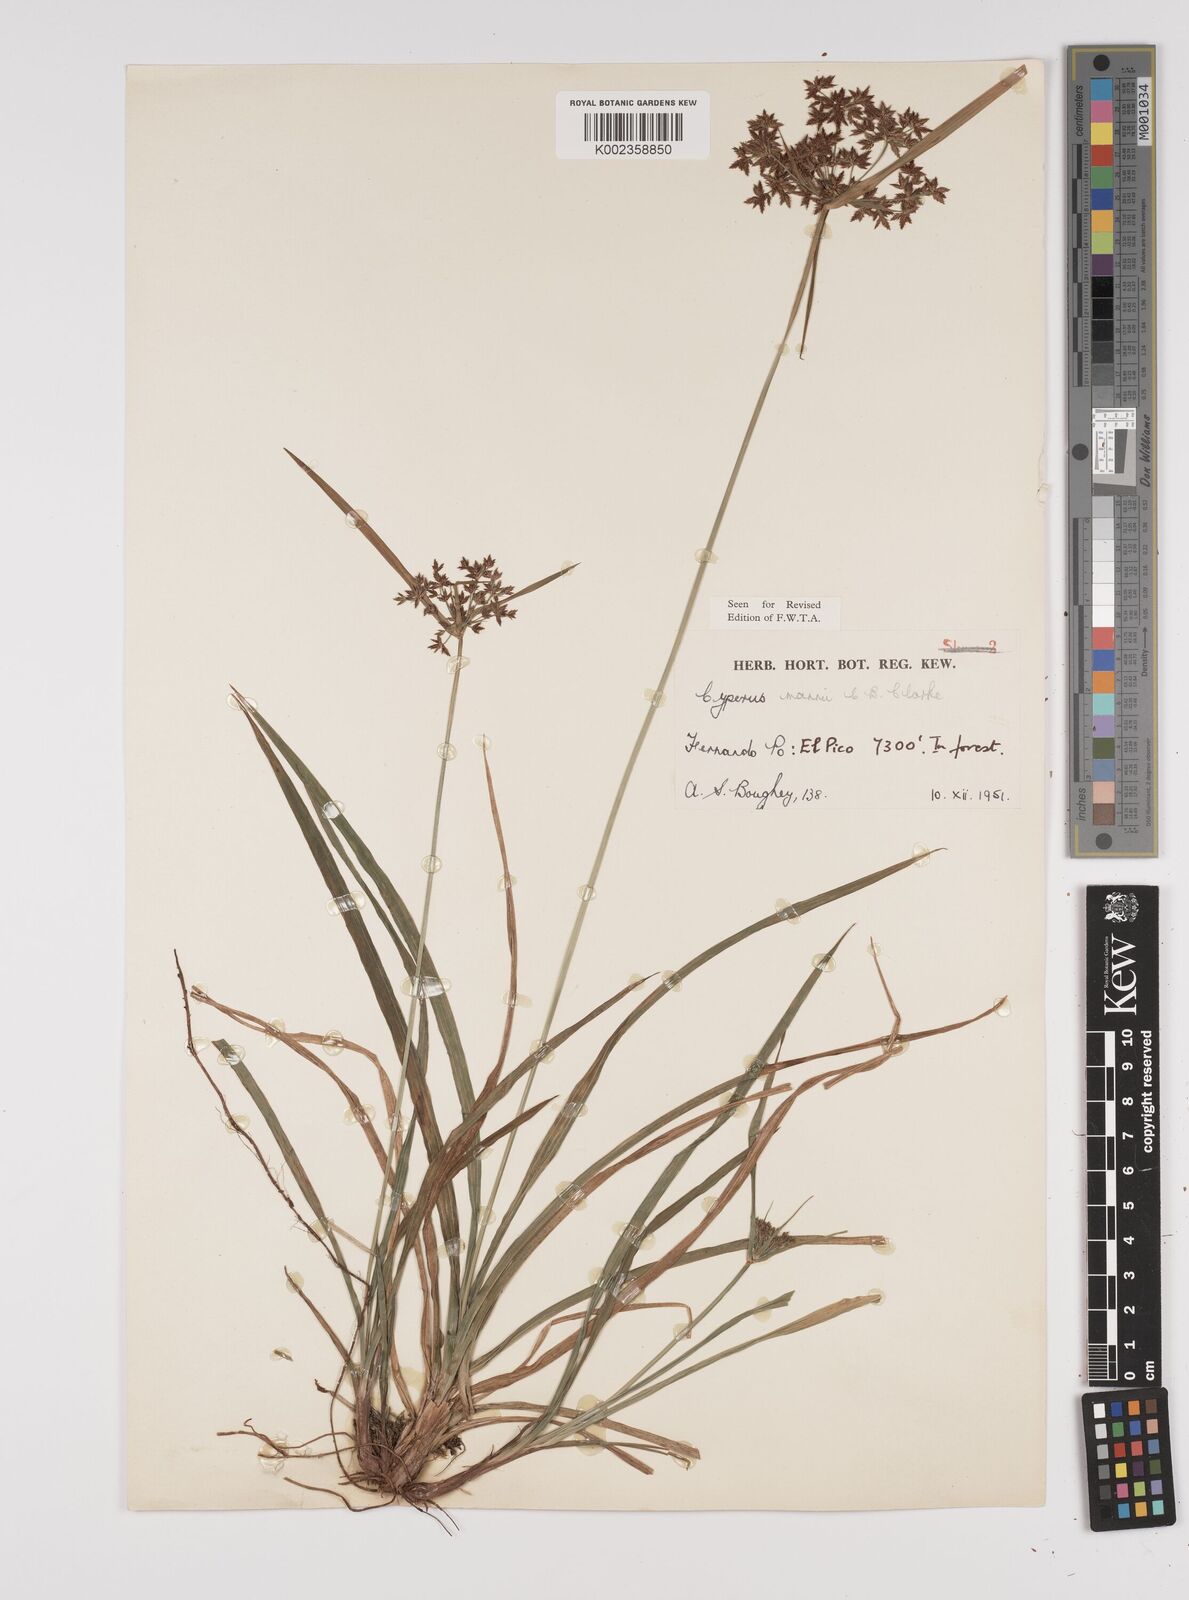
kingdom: Plantae
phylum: Tracheophyta
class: Liliopsida
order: Poales
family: Cyperaceae
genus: Cyperus
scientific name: Cyperus baronii
